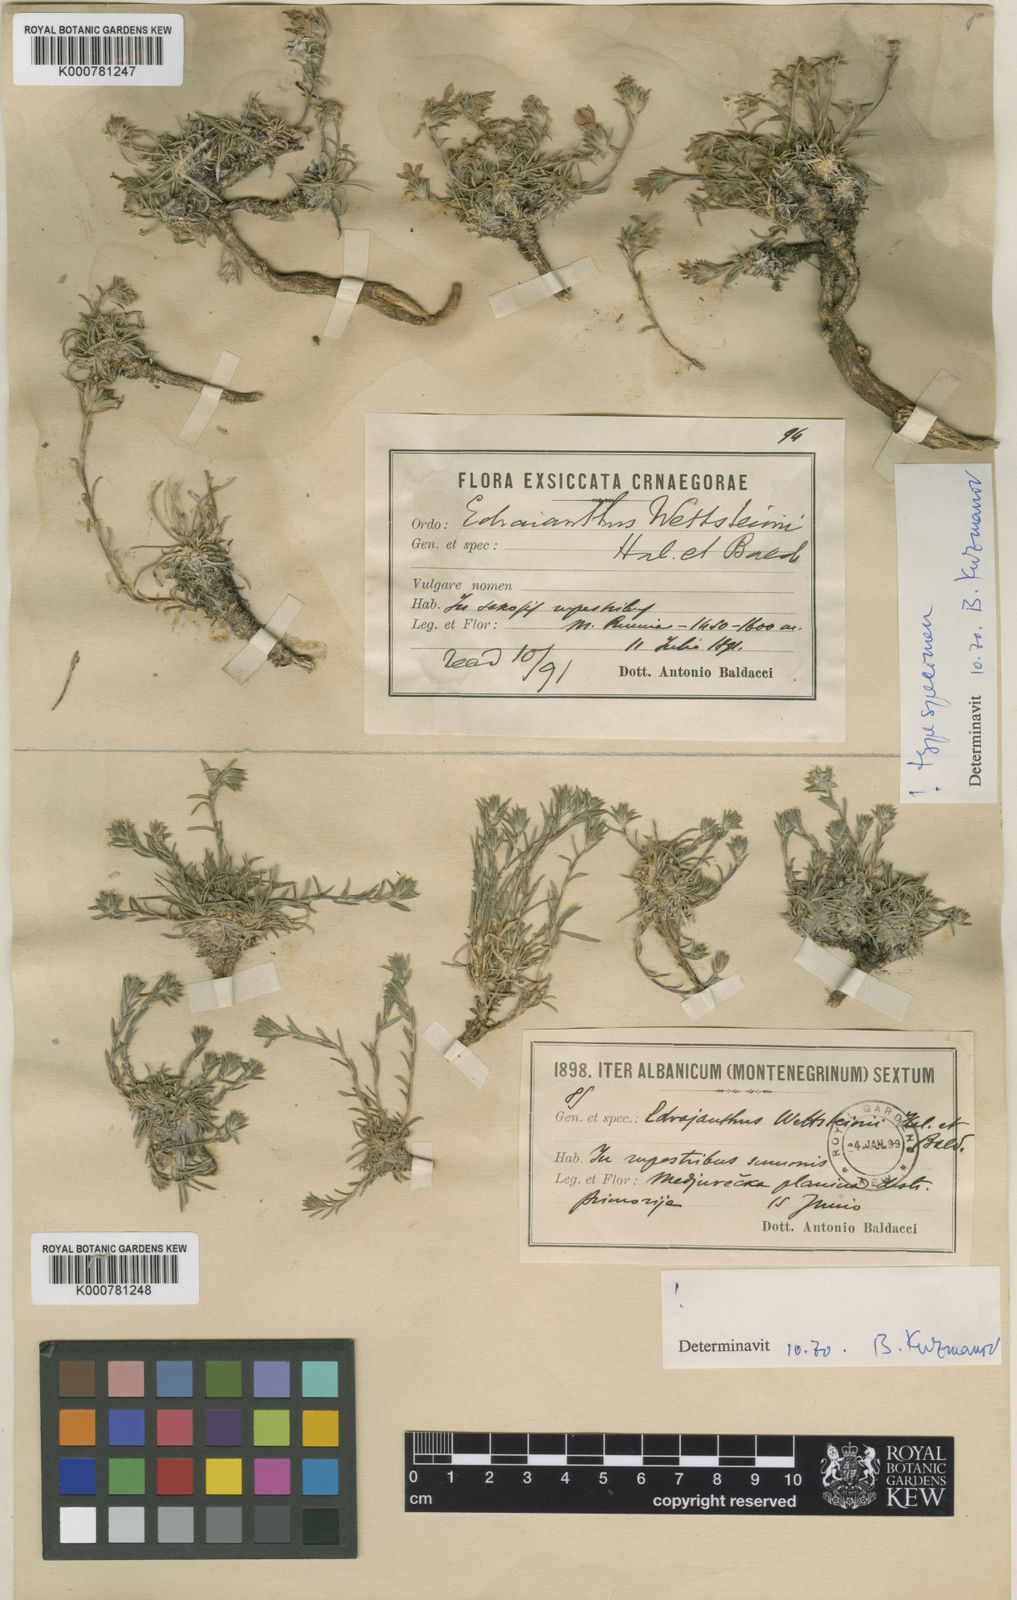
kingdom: Plantae
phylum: Tracheophyta
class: Magnoliopsida
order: Asterales
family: Campanulaceae
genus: Edraianthus
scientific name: Edraianthus
